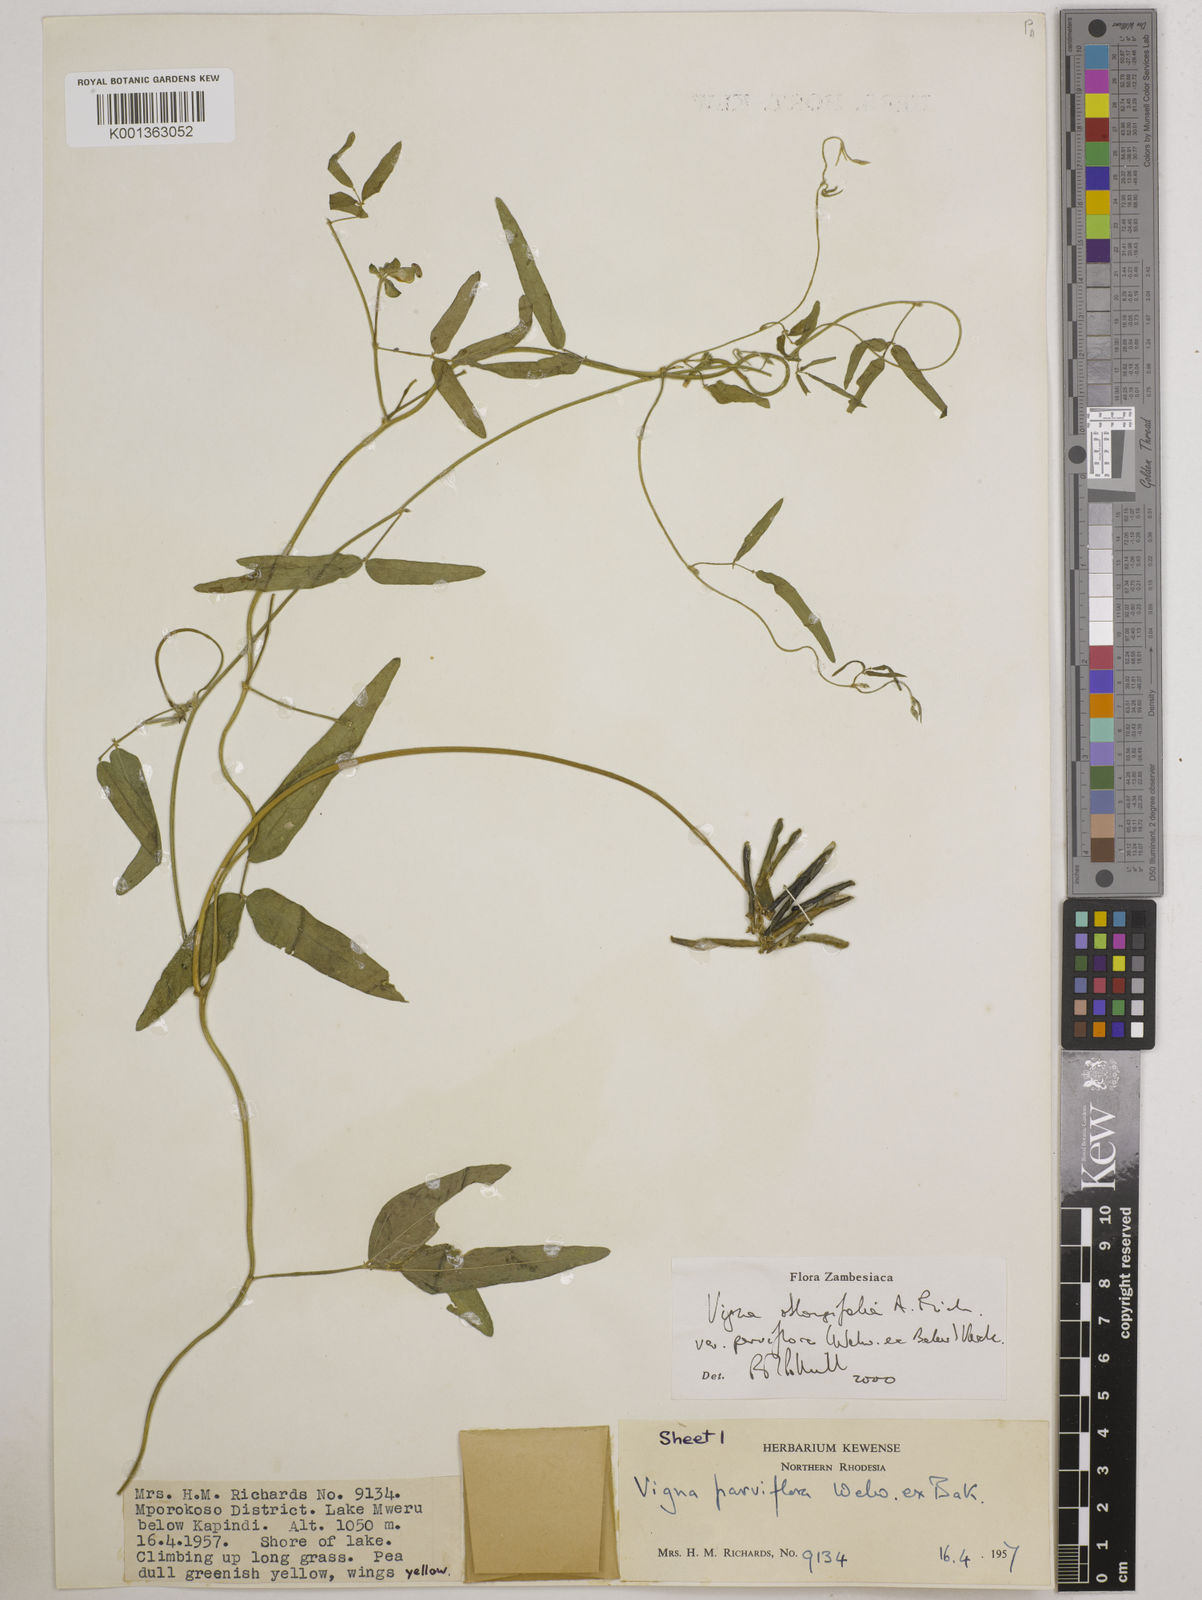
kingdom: Plantae
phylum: Tracheophyta
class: Magnoliopsida
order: Fabales
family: Fabaceae
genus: Vigna
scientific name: Vigna
